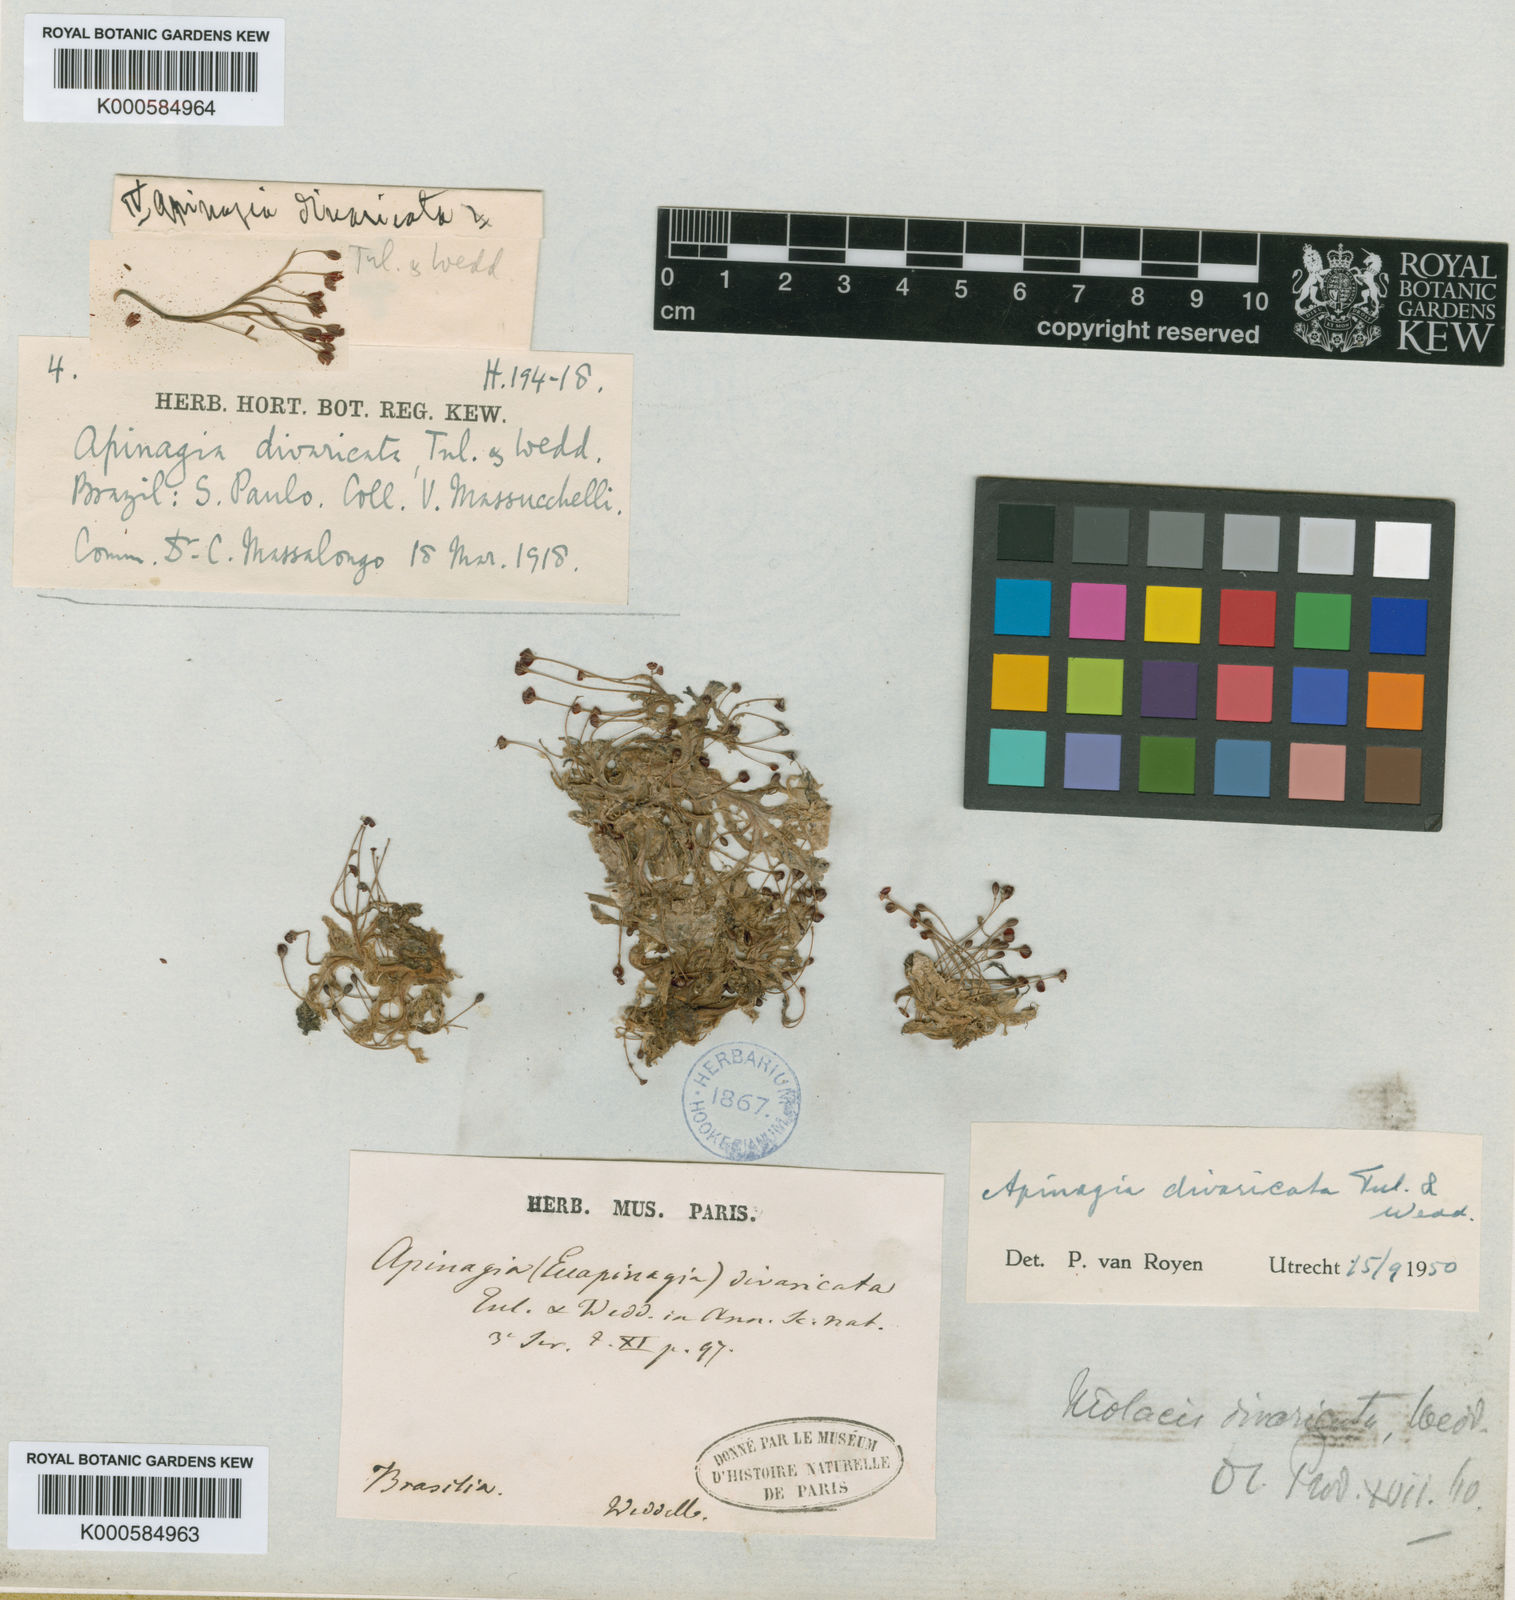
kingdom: Plantae
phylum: Tracheophyta
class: Magnoliopsida
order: Malpighiales
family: Podostemaceae
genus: Apinagia
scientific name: Apinagia riedelii
